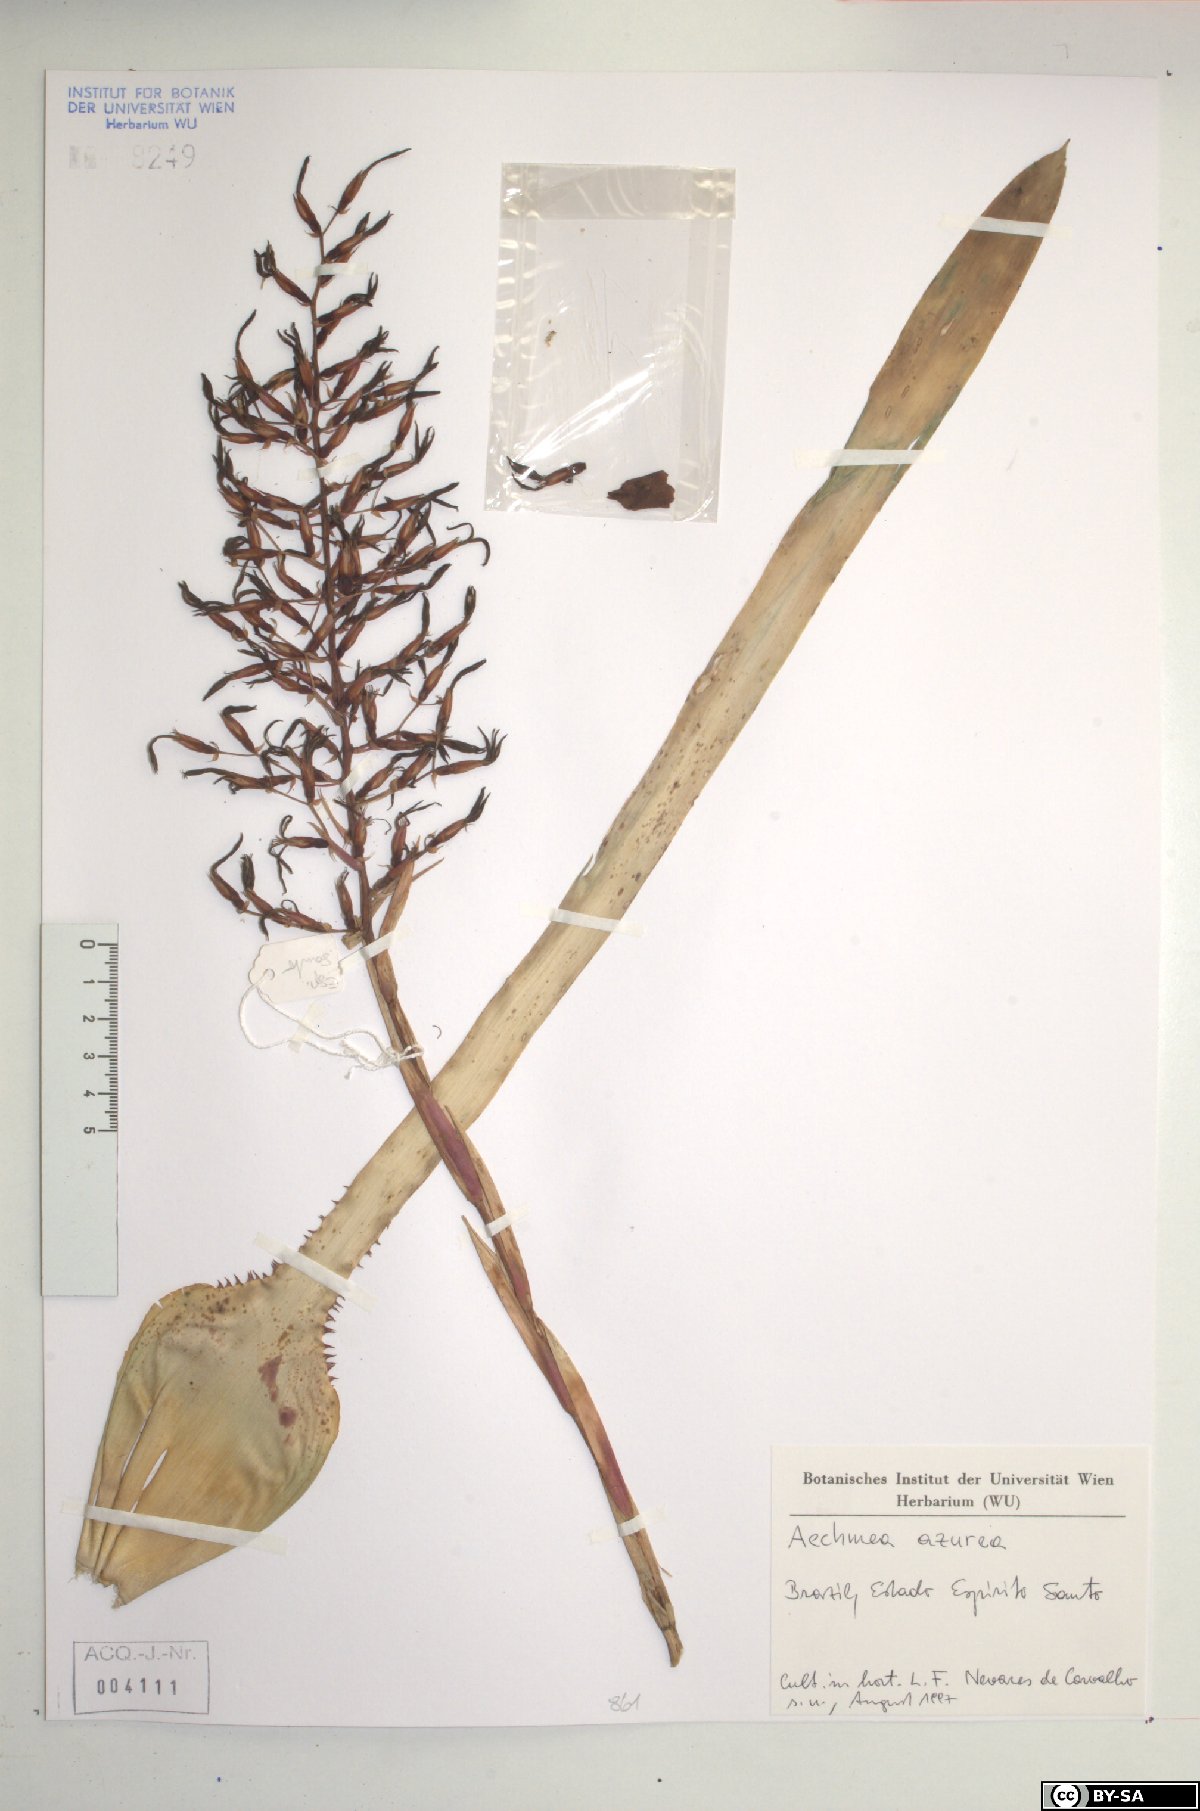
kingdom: Plantae
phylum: Tracheophyta
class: Liliopsida
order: Poales
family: Bromeliaceae
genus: Aechmea
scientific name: Aechmea azurea
